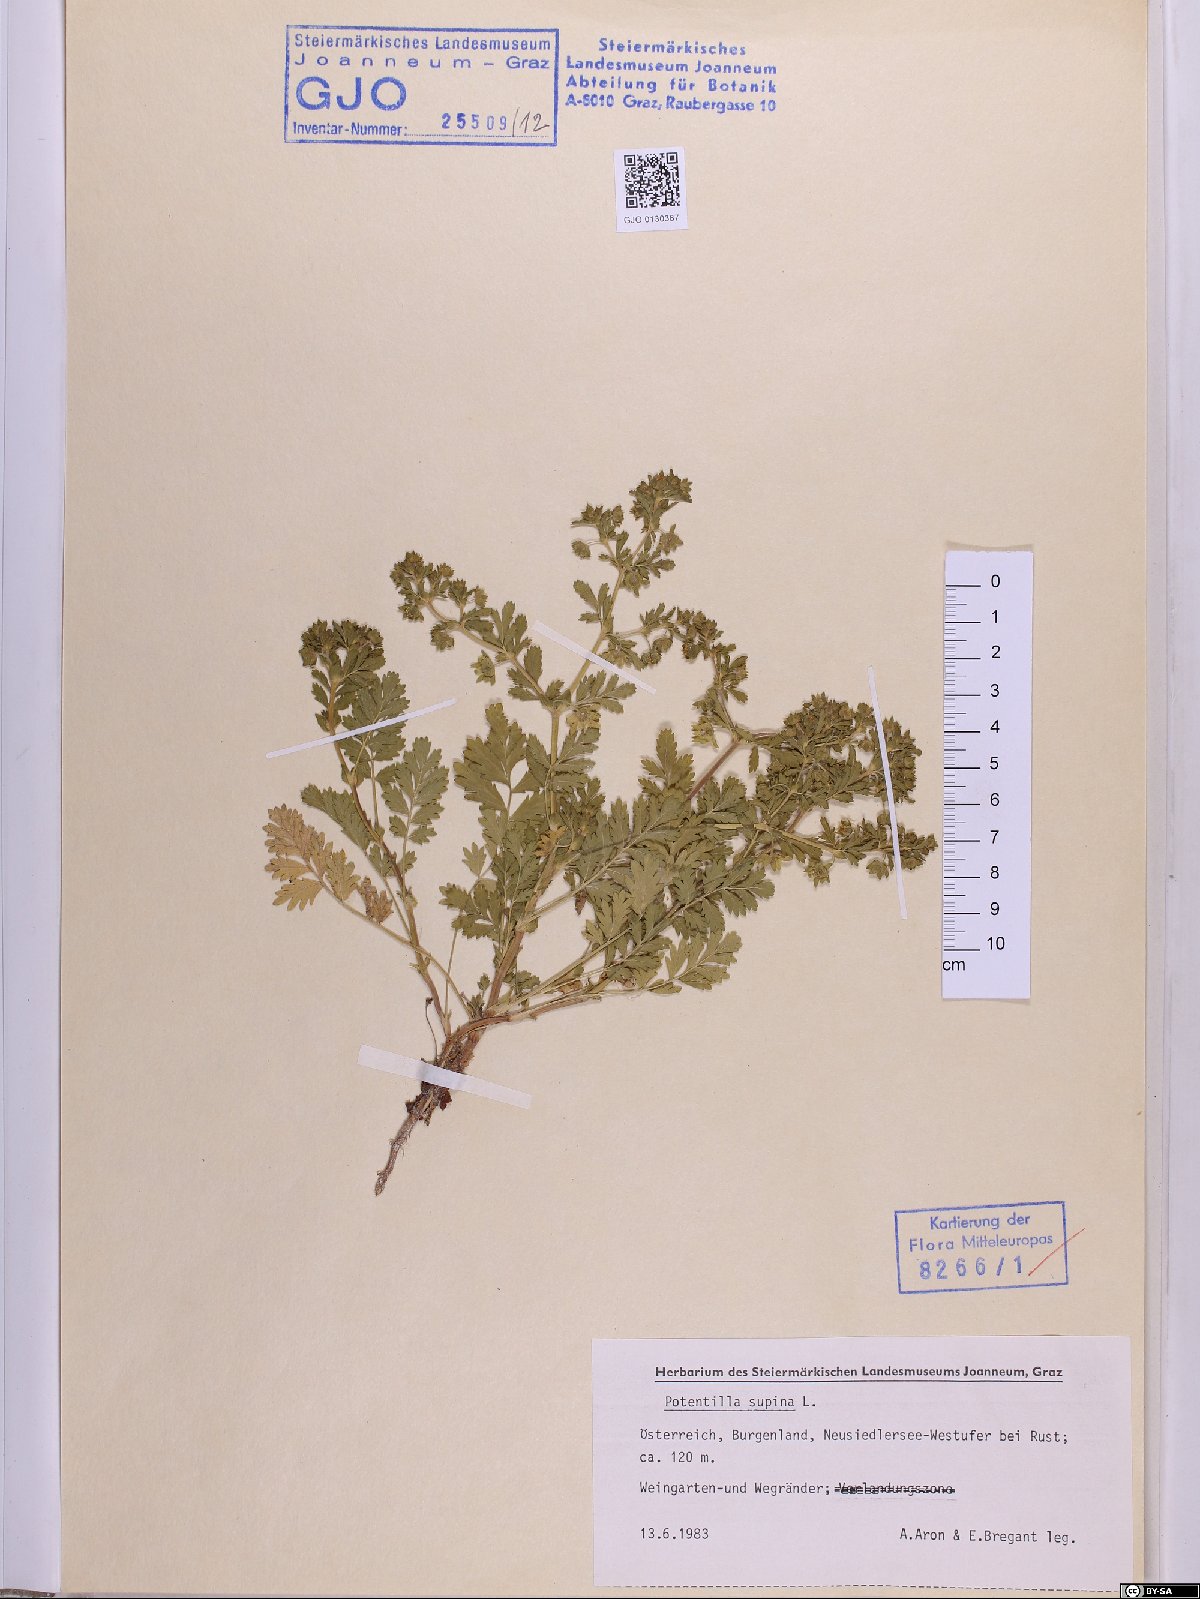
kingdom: Plantae
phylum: Tracheophyta
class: Magnoliopsida
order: Rosales
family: Rosaceae
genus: Potentilla
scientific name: Potentilla supina
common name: Prostrate cinquefoil
